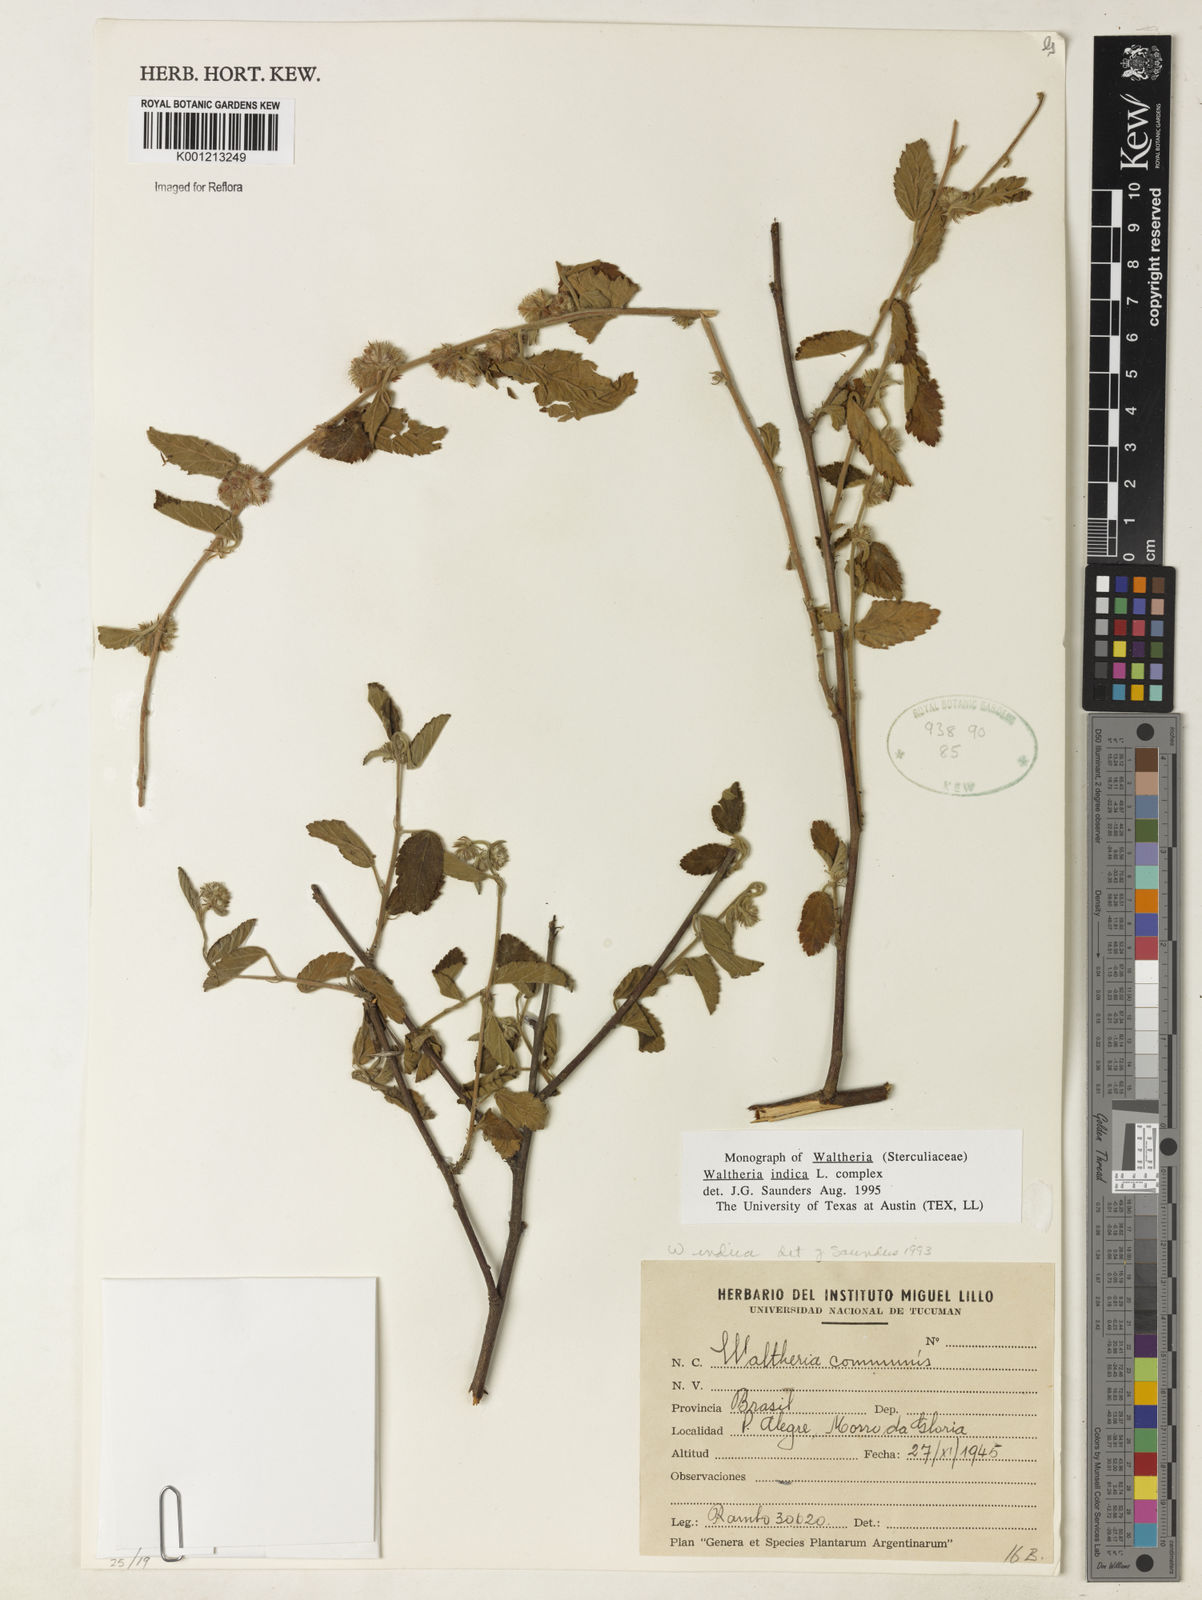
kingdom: Plantae
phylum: Tracheophyta
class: Magnoliopsida
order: Malvales
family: Malvaceae
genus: Waltheria
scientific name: Waltheria indica
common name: Leather-coat
